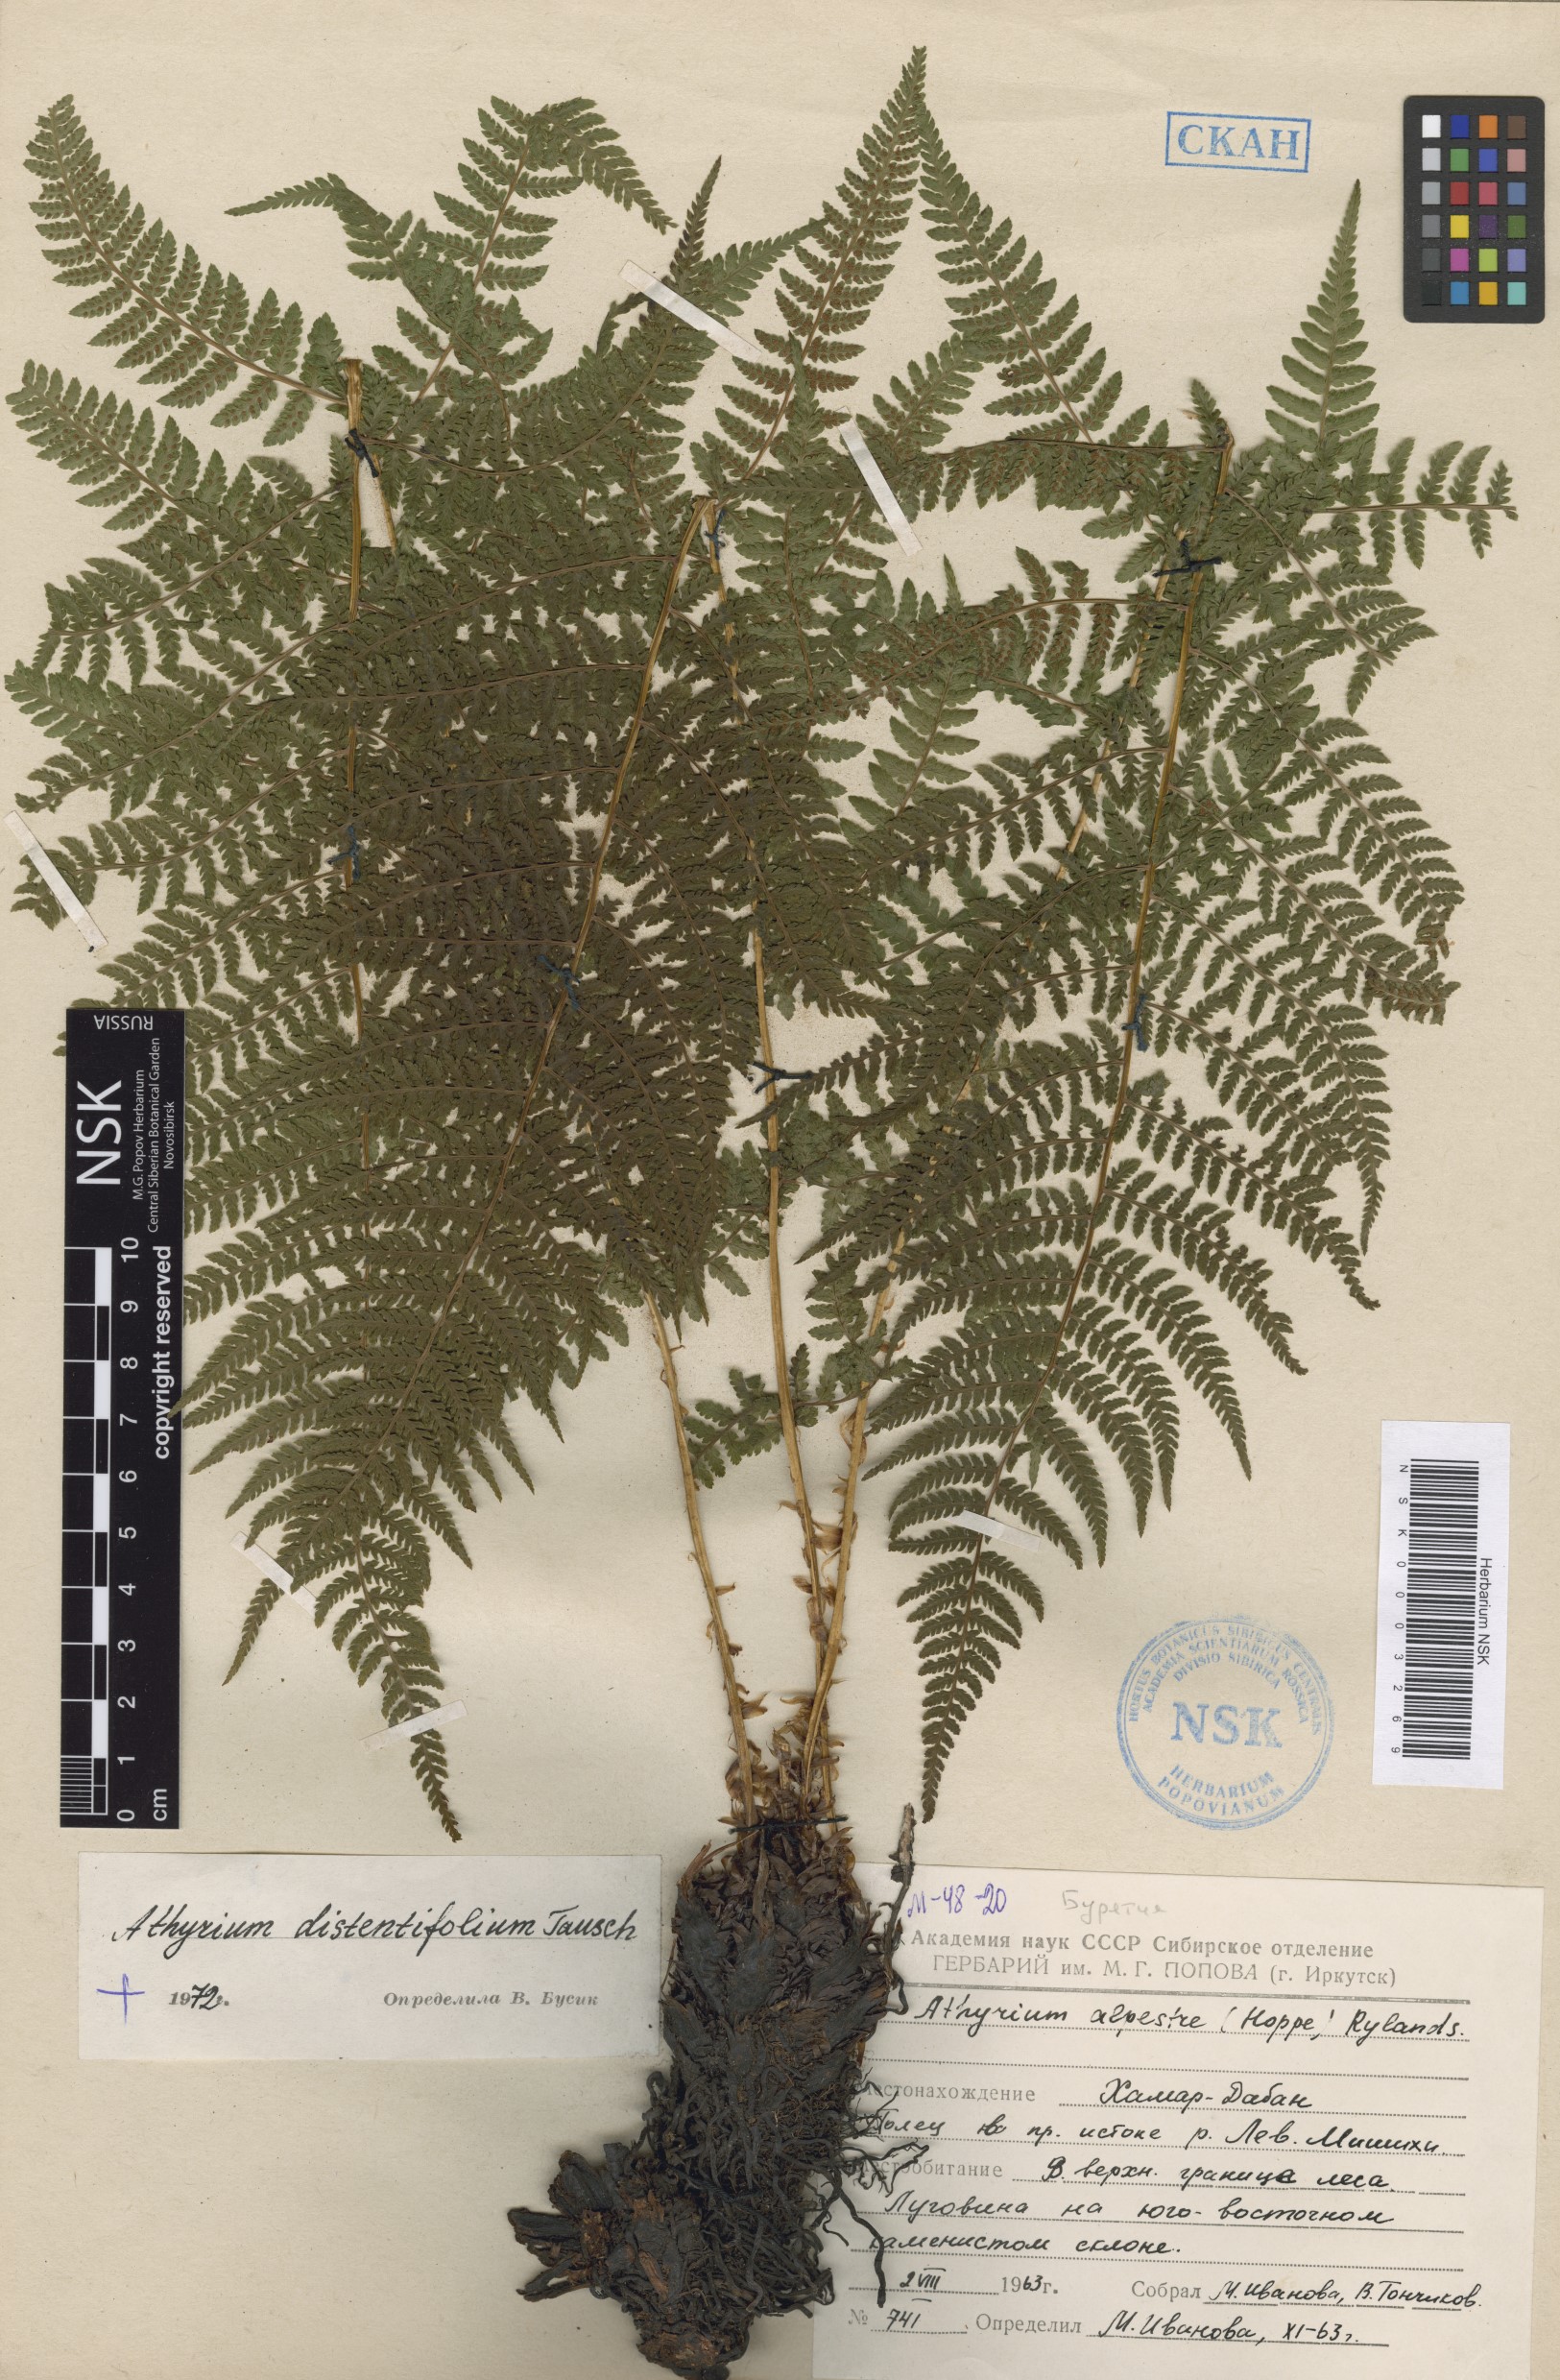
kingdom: Plantae
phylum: Tracheophyta
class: Polypodiopsida
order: Polypodiales
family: Athyriaceae
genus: Pseudathyrium
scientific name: Pseudathyrium alpestre
